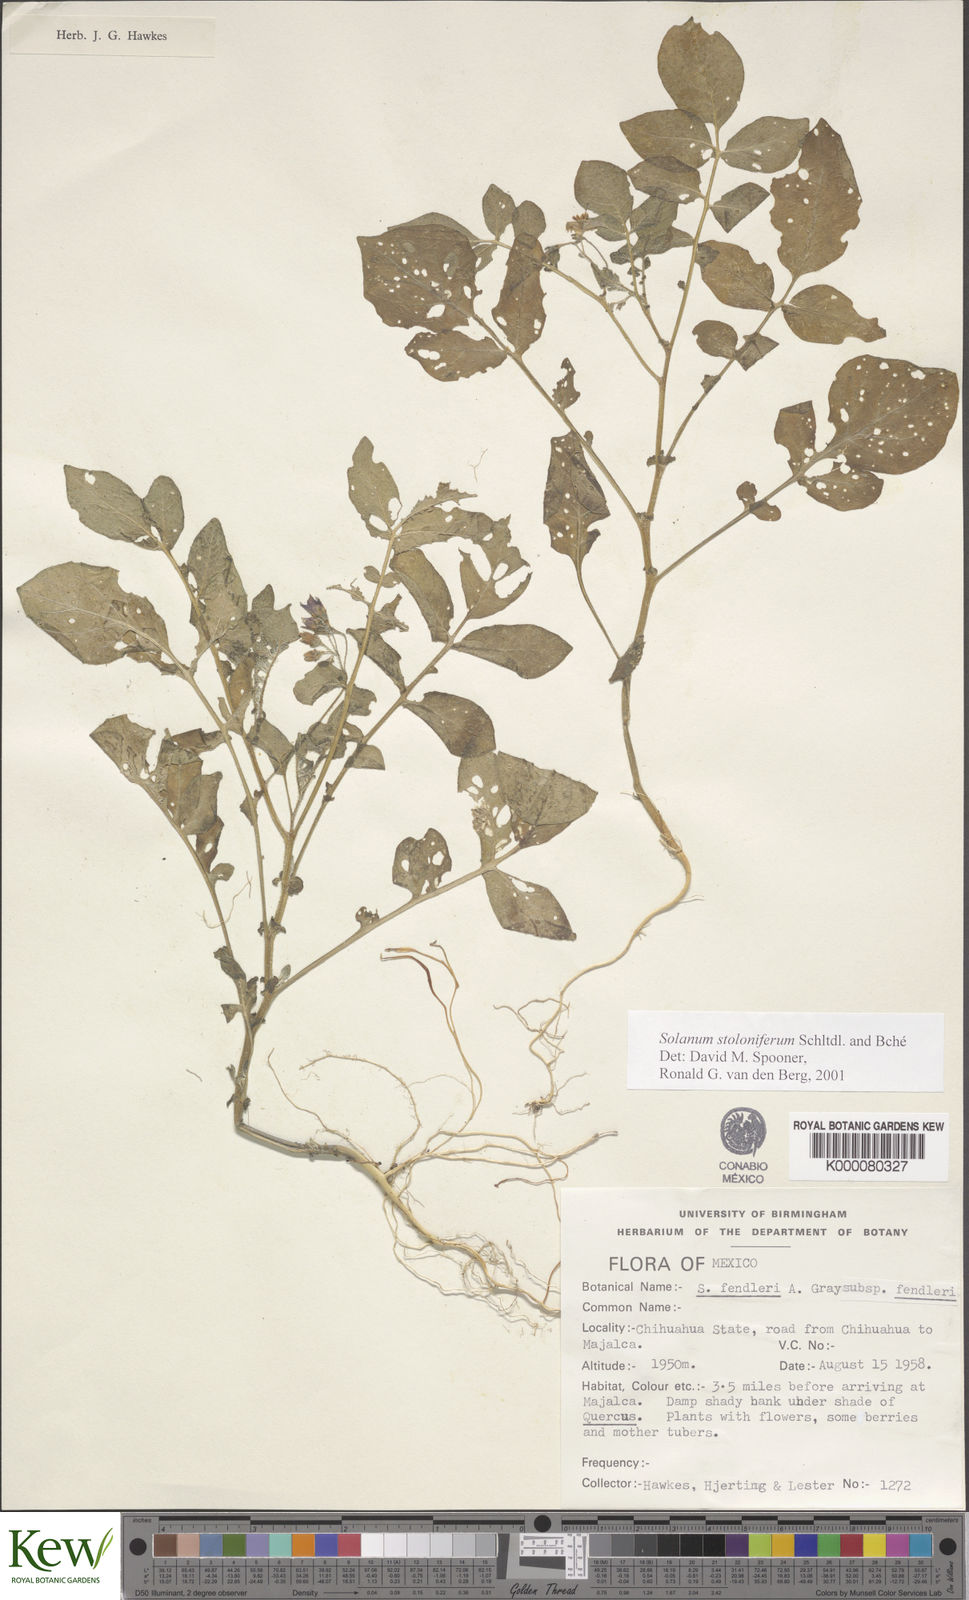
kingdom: Plantae
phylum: Tracheophyta
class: Magnoliopsida
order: Solanales
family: Solanaceae
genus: Solanum
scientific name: Solanum stoloniferum
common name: Fendler's nighshade
